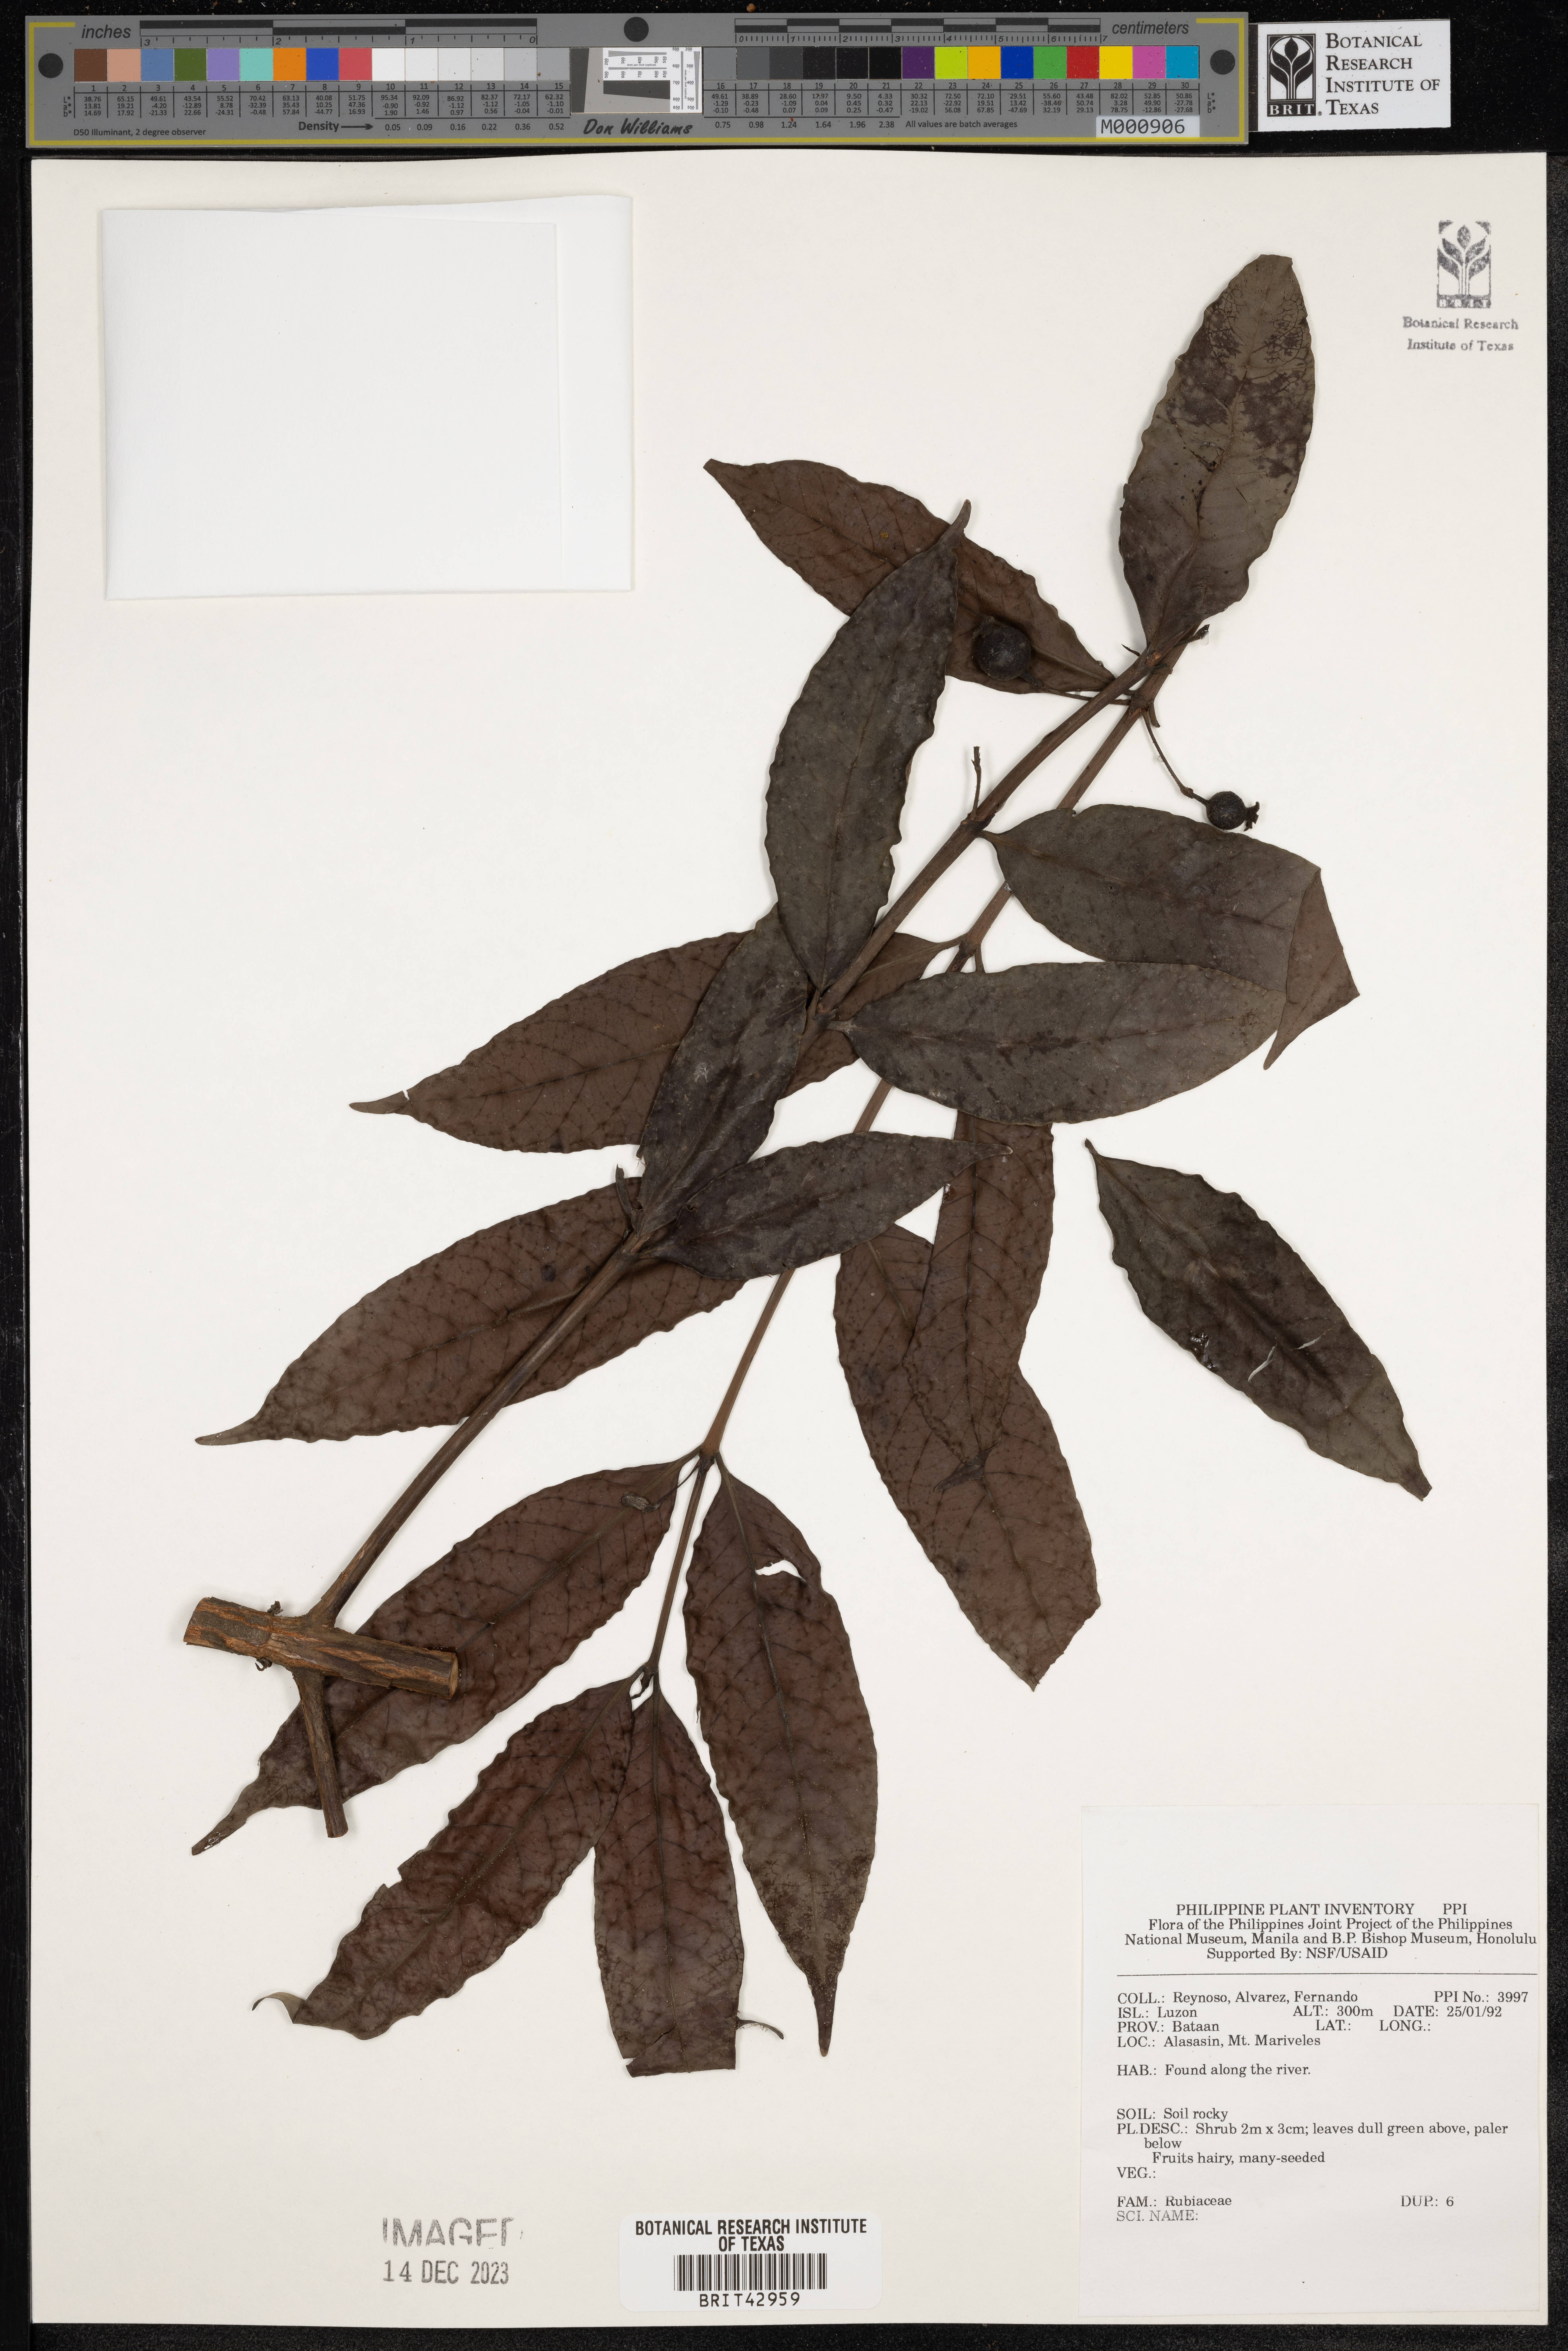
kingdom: Plantae
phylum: Tracheophyta
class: Magnoliopsida
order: Gentianales
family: Rubiaceae
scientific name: Rubiaceae
